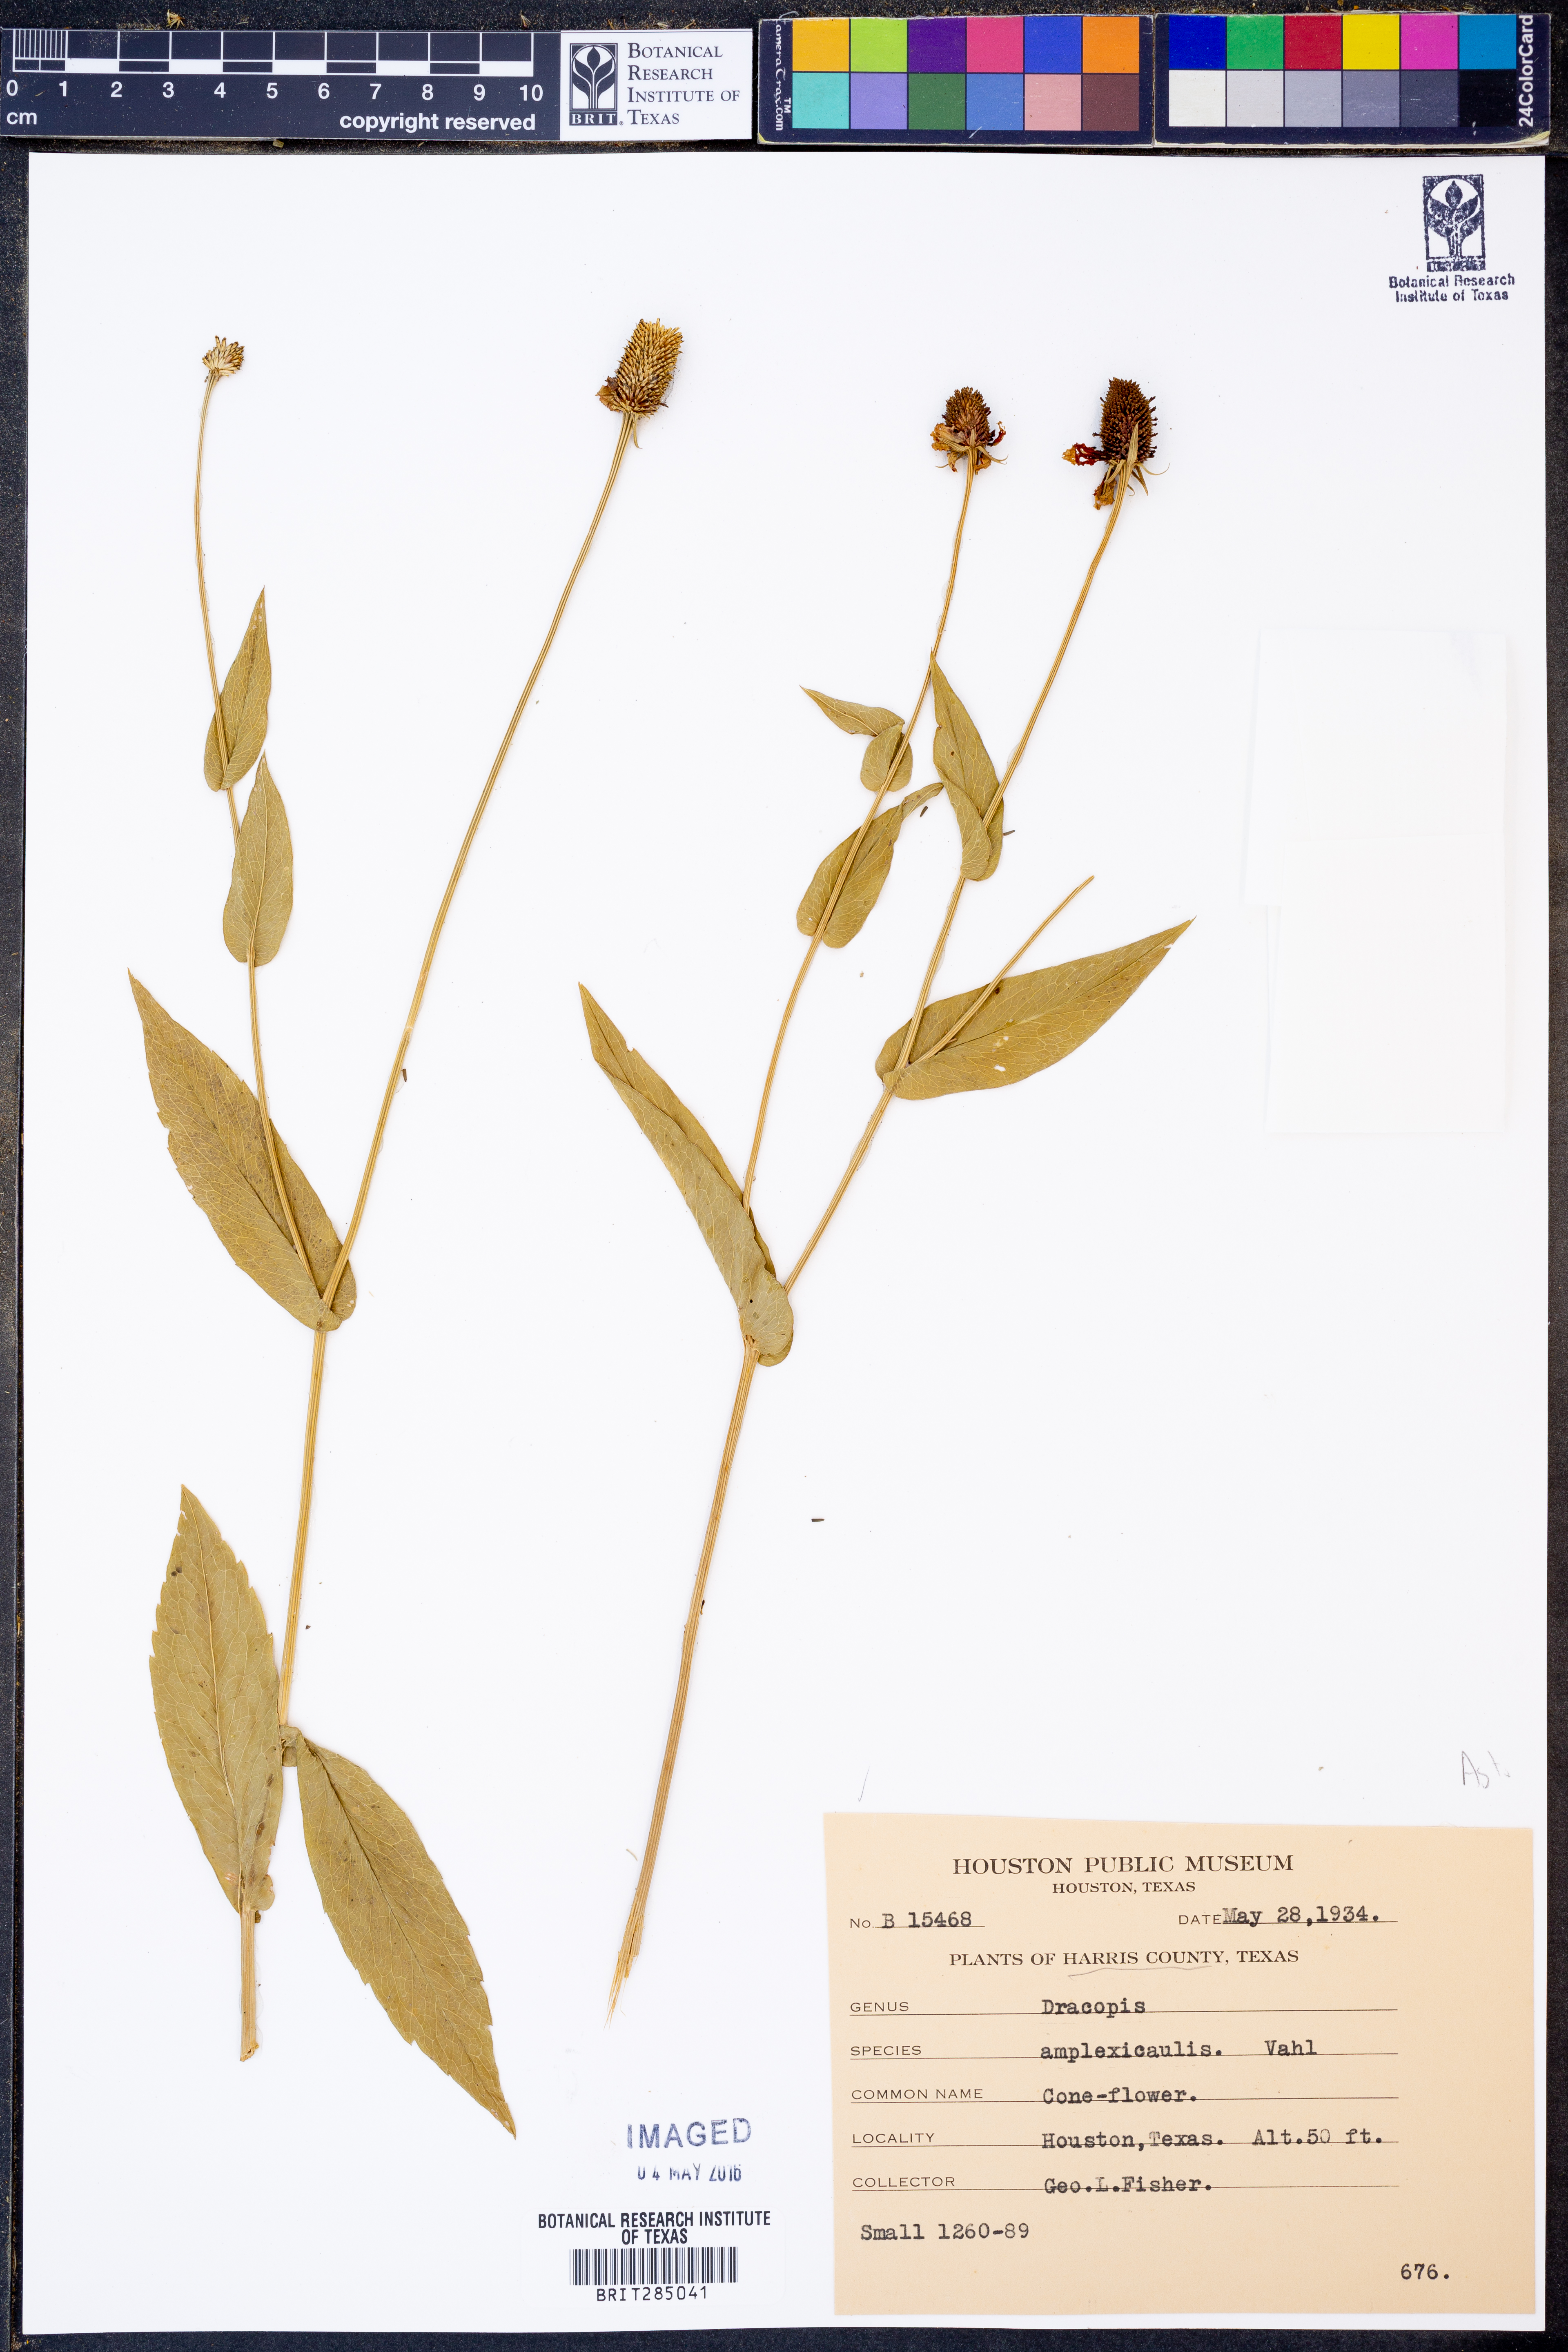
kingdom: Plantae
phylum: Tracheophyta
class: Magnoliopsida
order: Asterales
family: Asteraceae
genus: Rudbeckia
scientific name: Rudbeckia amplexicaulis
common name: Clasping-leaf coneflower
